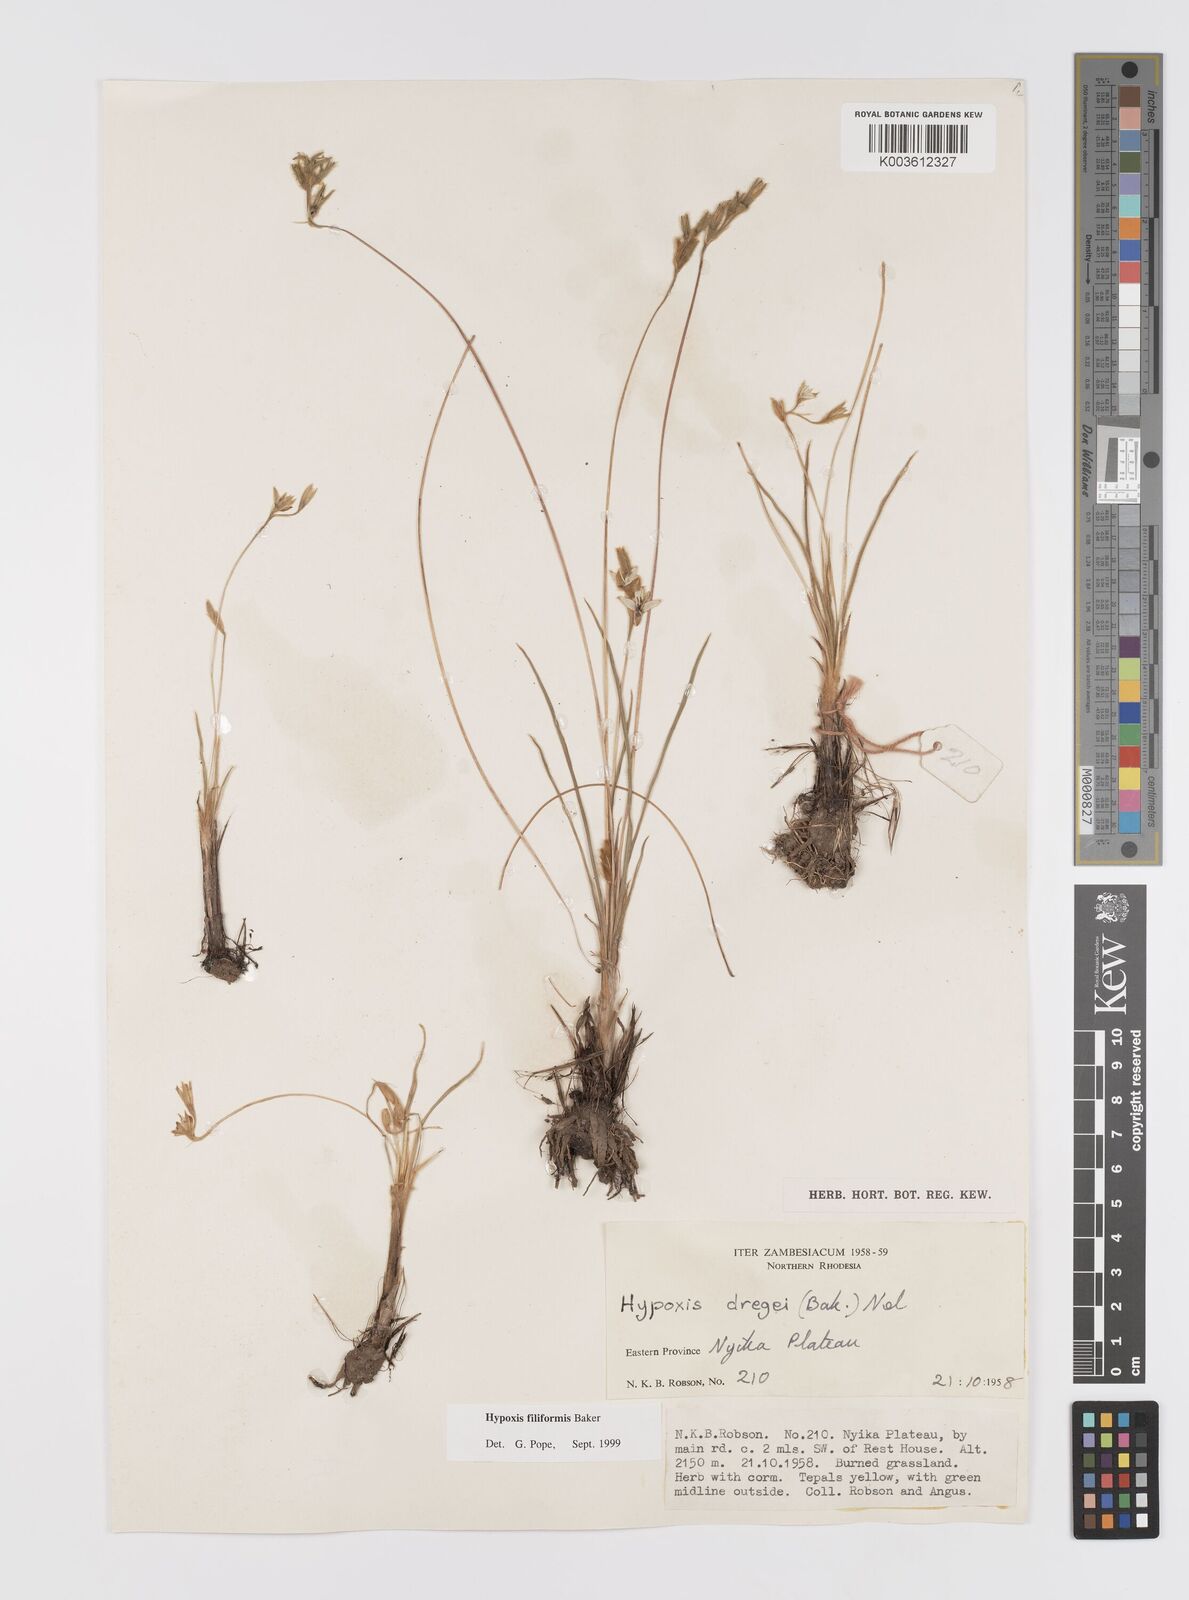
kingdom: Plantae
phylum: Tracheophyta
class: Liliopsida
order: Asparagales
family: Hypoxidaceae
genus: Hypoxis
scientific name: Hypoxis filiformis
